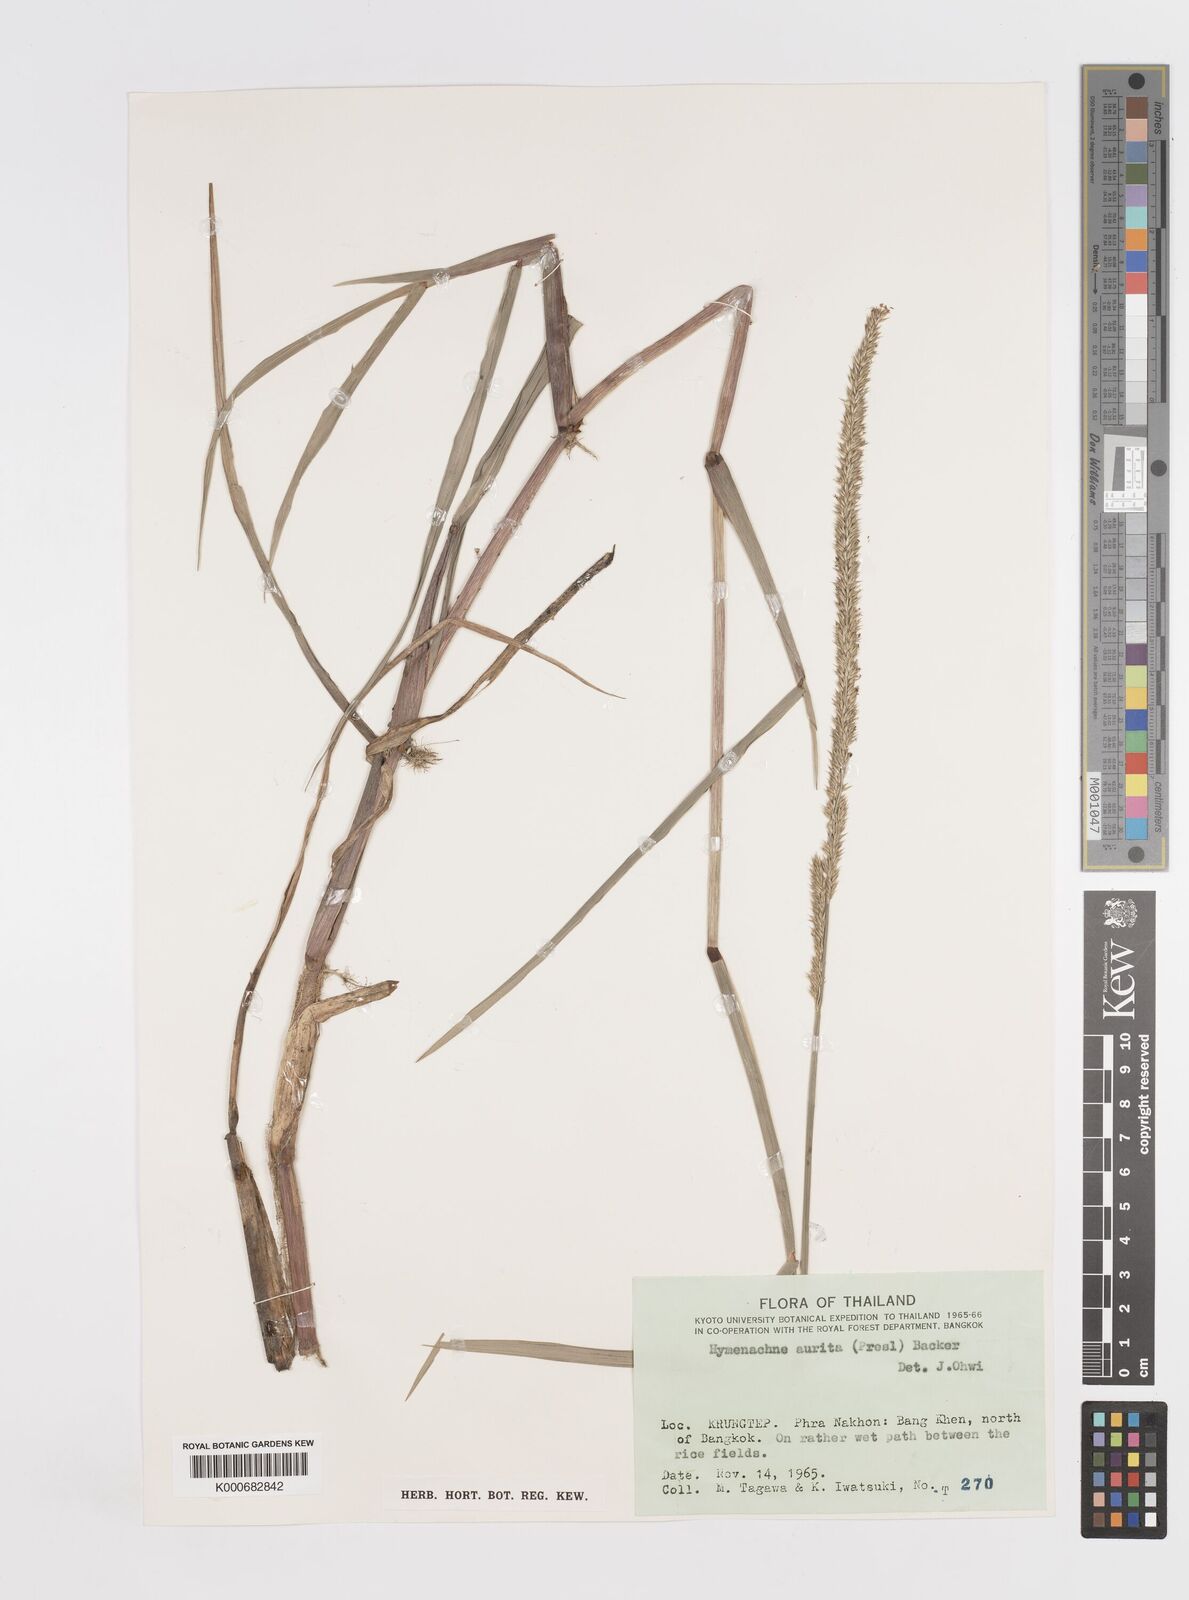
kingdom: Plantae
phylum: Tracheophyta
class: Liliopsida
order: Poales
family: Poaceae
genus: Hymenachne
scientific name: Hymenachne amplexicaulis
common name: Olive hymenachne
